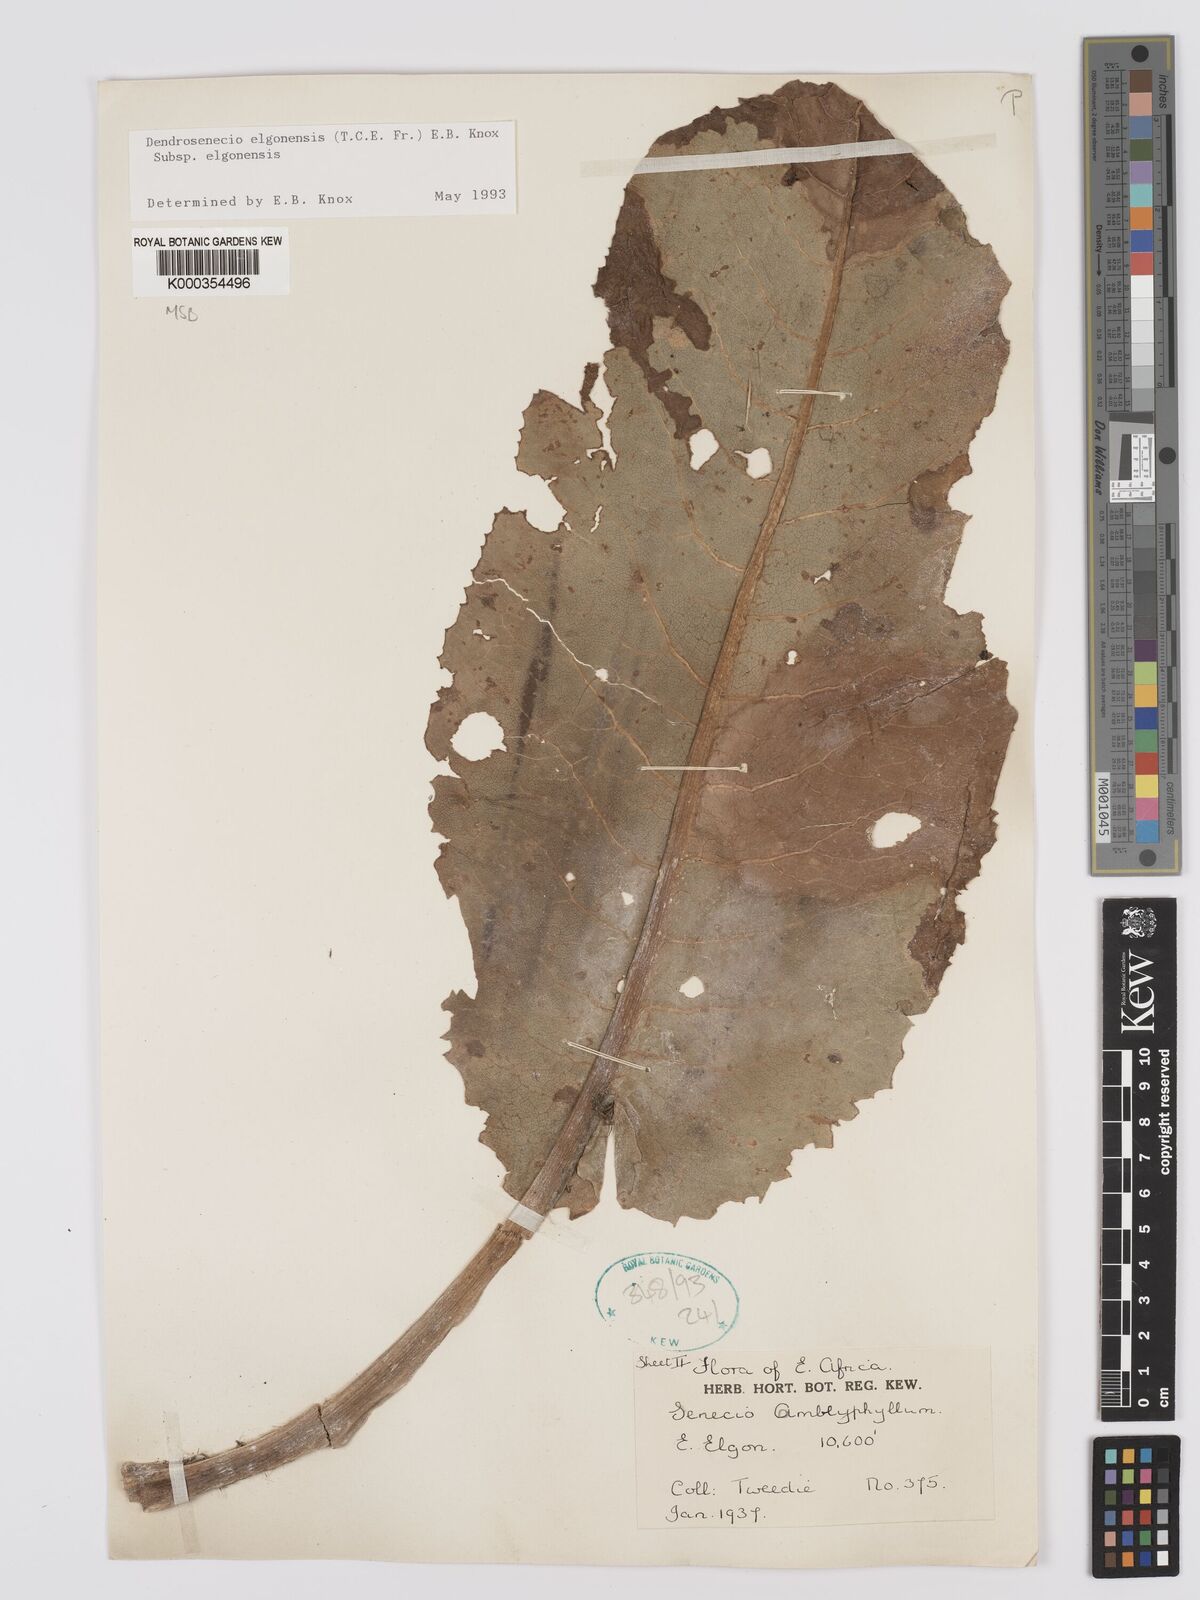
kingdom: Plantae
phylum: Tracheophyta
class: Magnoliopsida
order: Asterales
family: Asteraceae
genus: Dendrosenecio
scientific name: Dendrosenecio elgonensis
